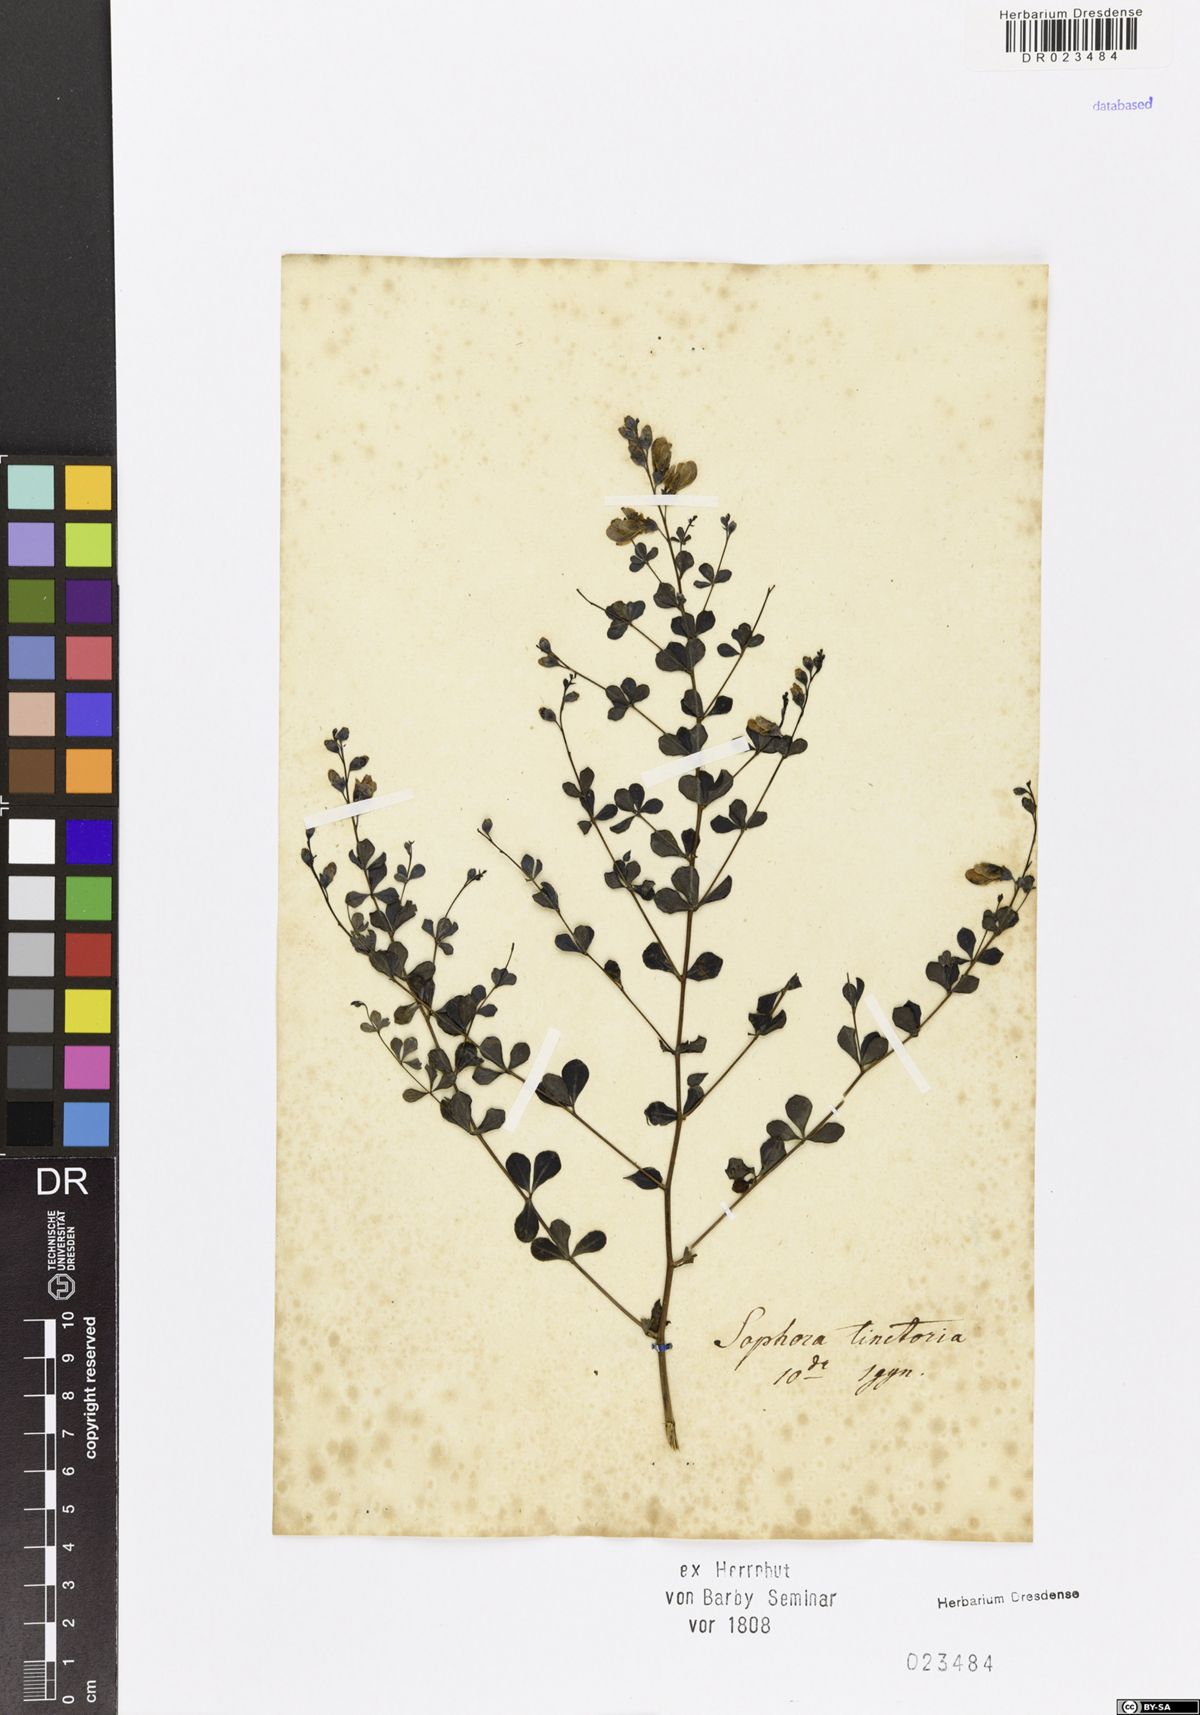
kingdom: Plantae
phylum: Tracheophyta
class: Magnoliopsida
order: Fabales
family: Fabaceae
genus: Baptisia
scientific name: Baptisia tinctoria
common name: Wild indigo
